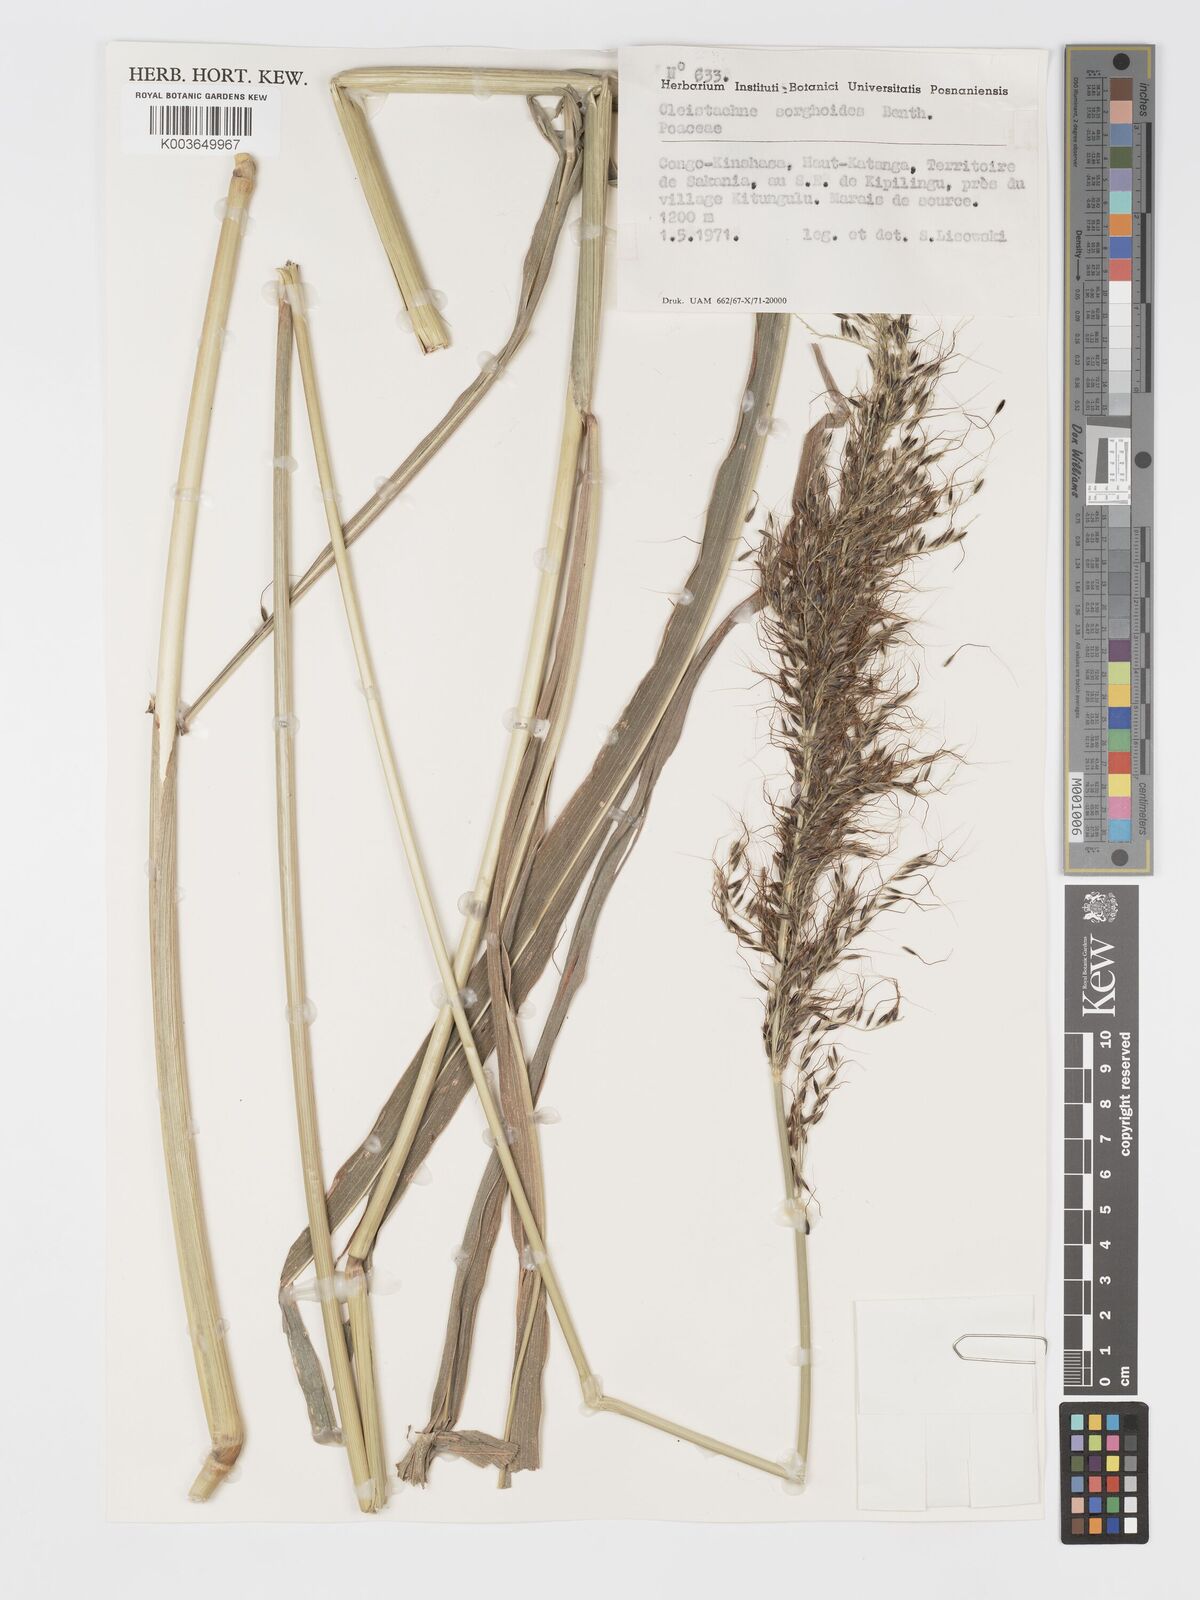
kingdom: Plantae
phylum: Tracheophyta
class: Liliopsida
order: Poales
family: Poaceae
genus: Cleistachne
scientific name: Cleistachne sorghoides
